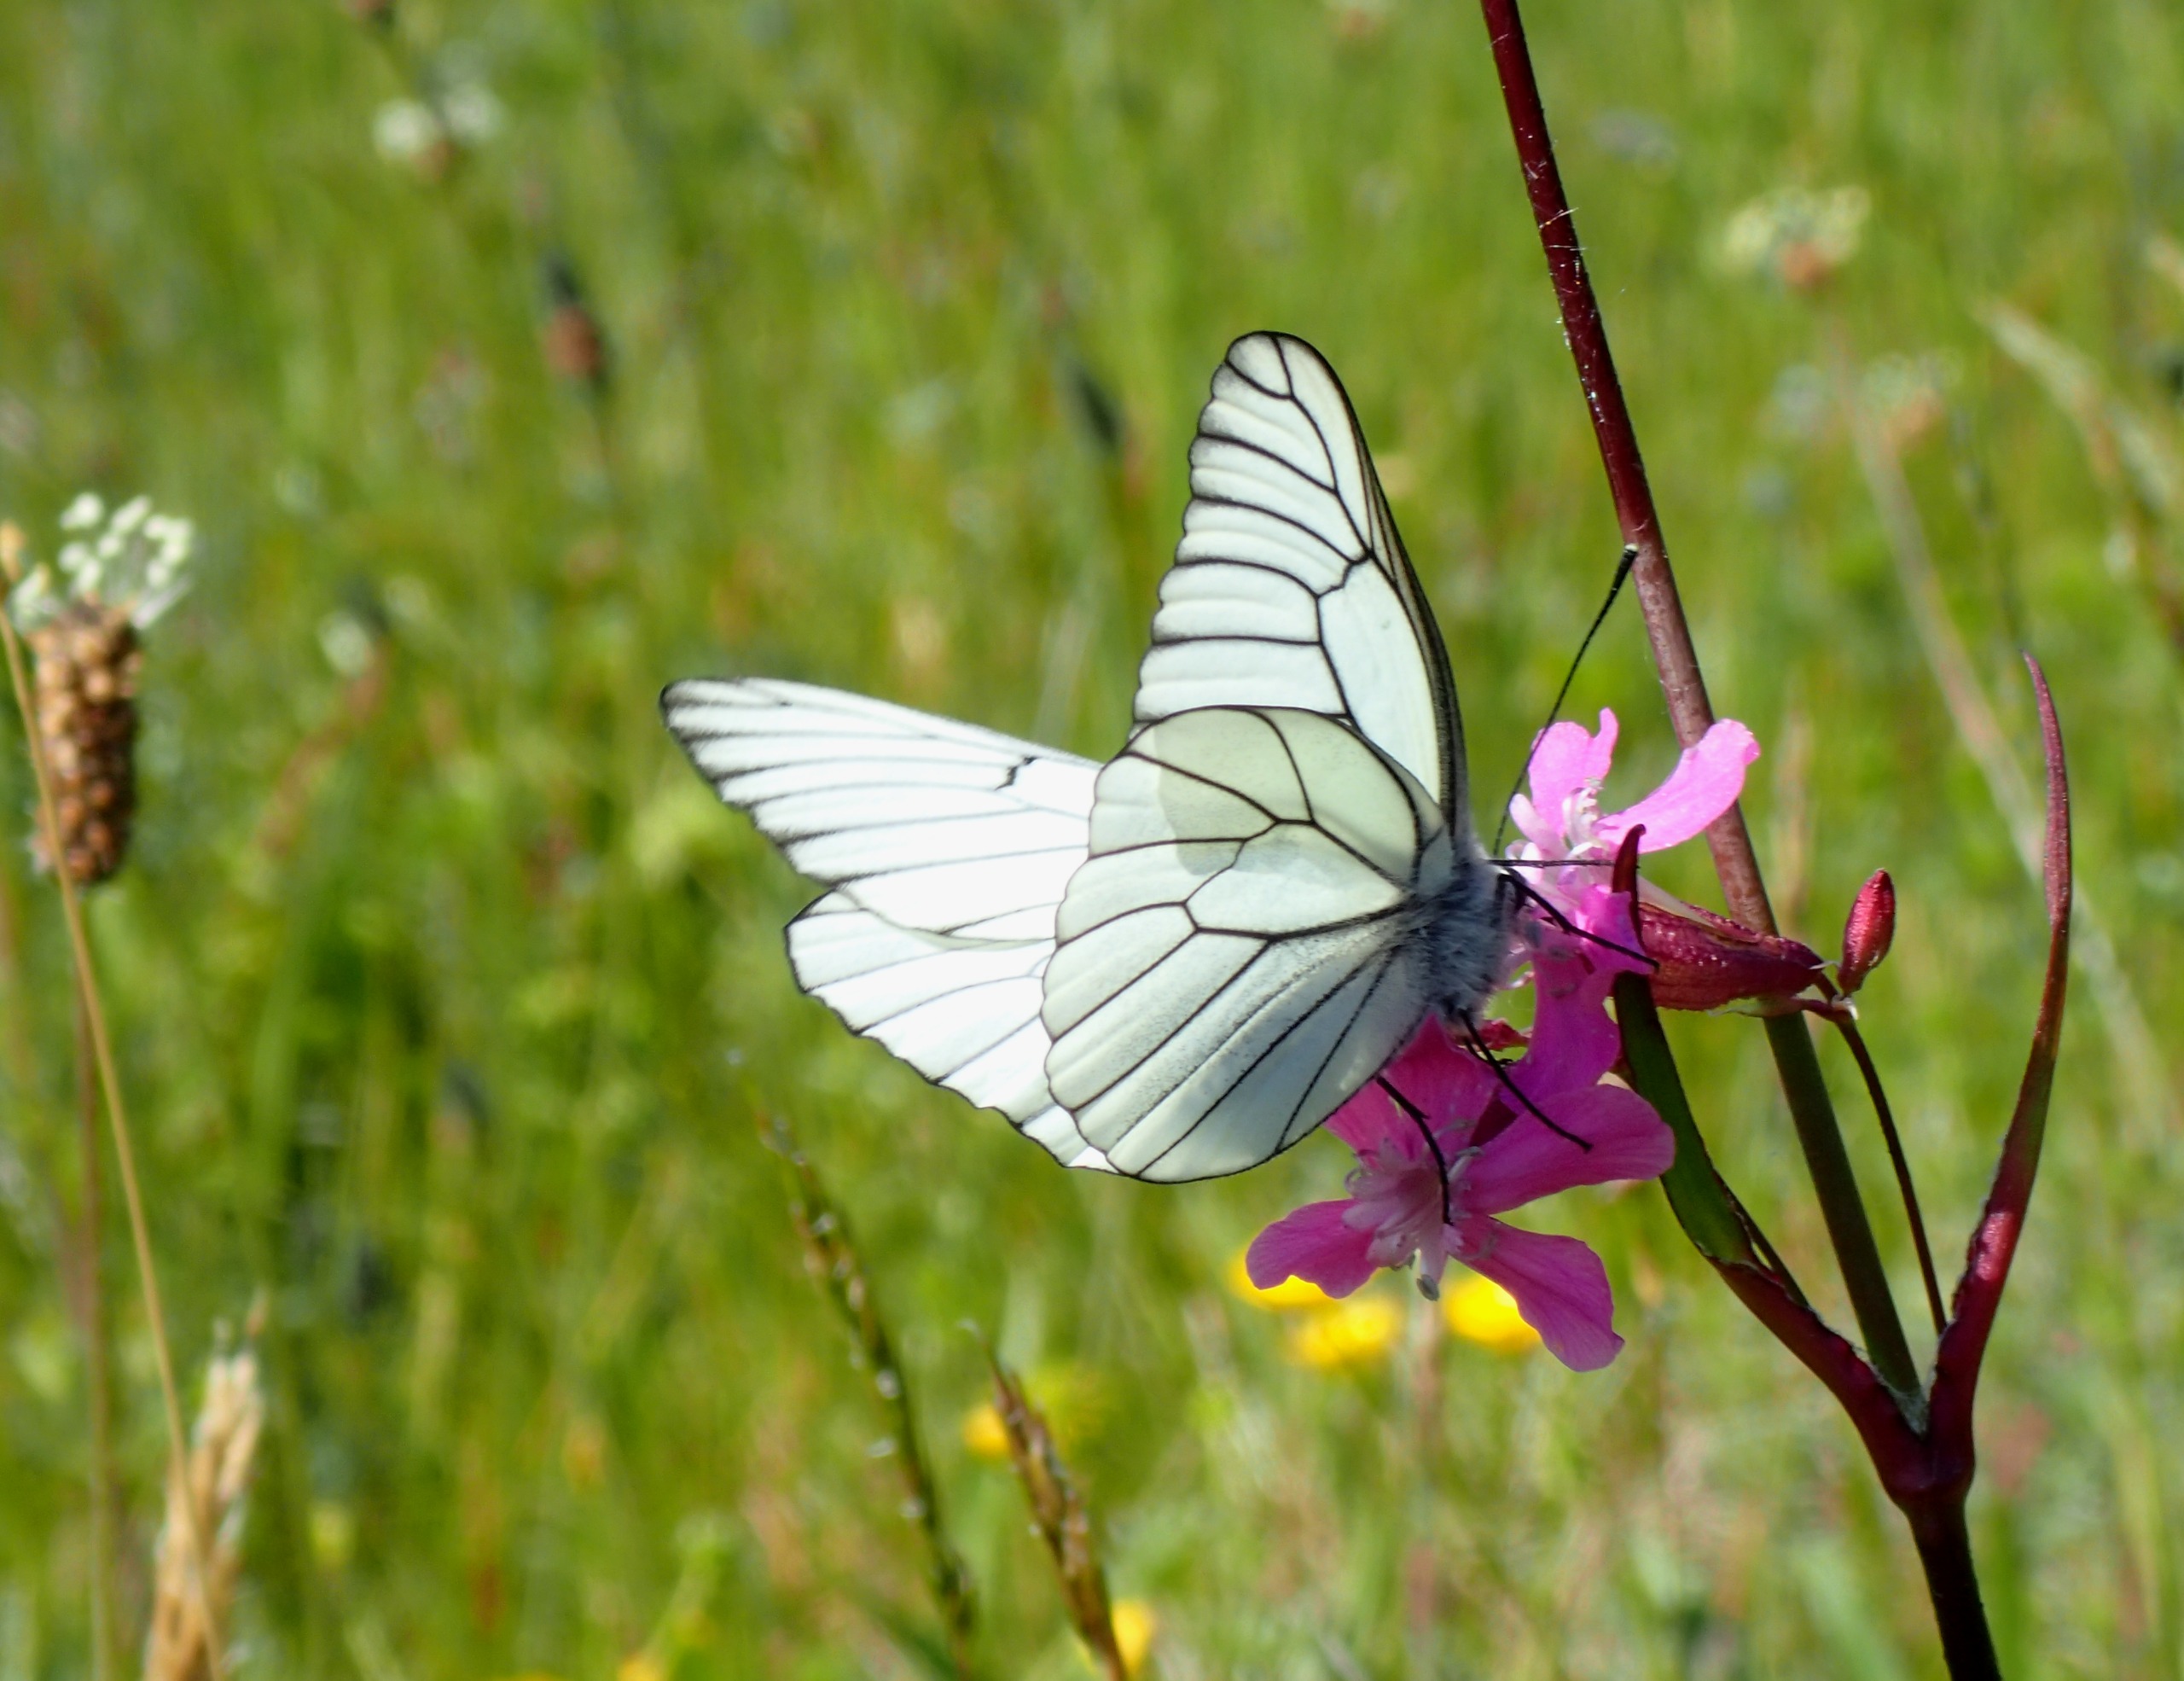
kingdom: Animalia
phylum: Arthropoda
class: Insecta
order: Lepidoptera
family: Pieridae
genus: Aporia
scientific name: Aporia crataegi
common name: Sortåret hvidvinge
